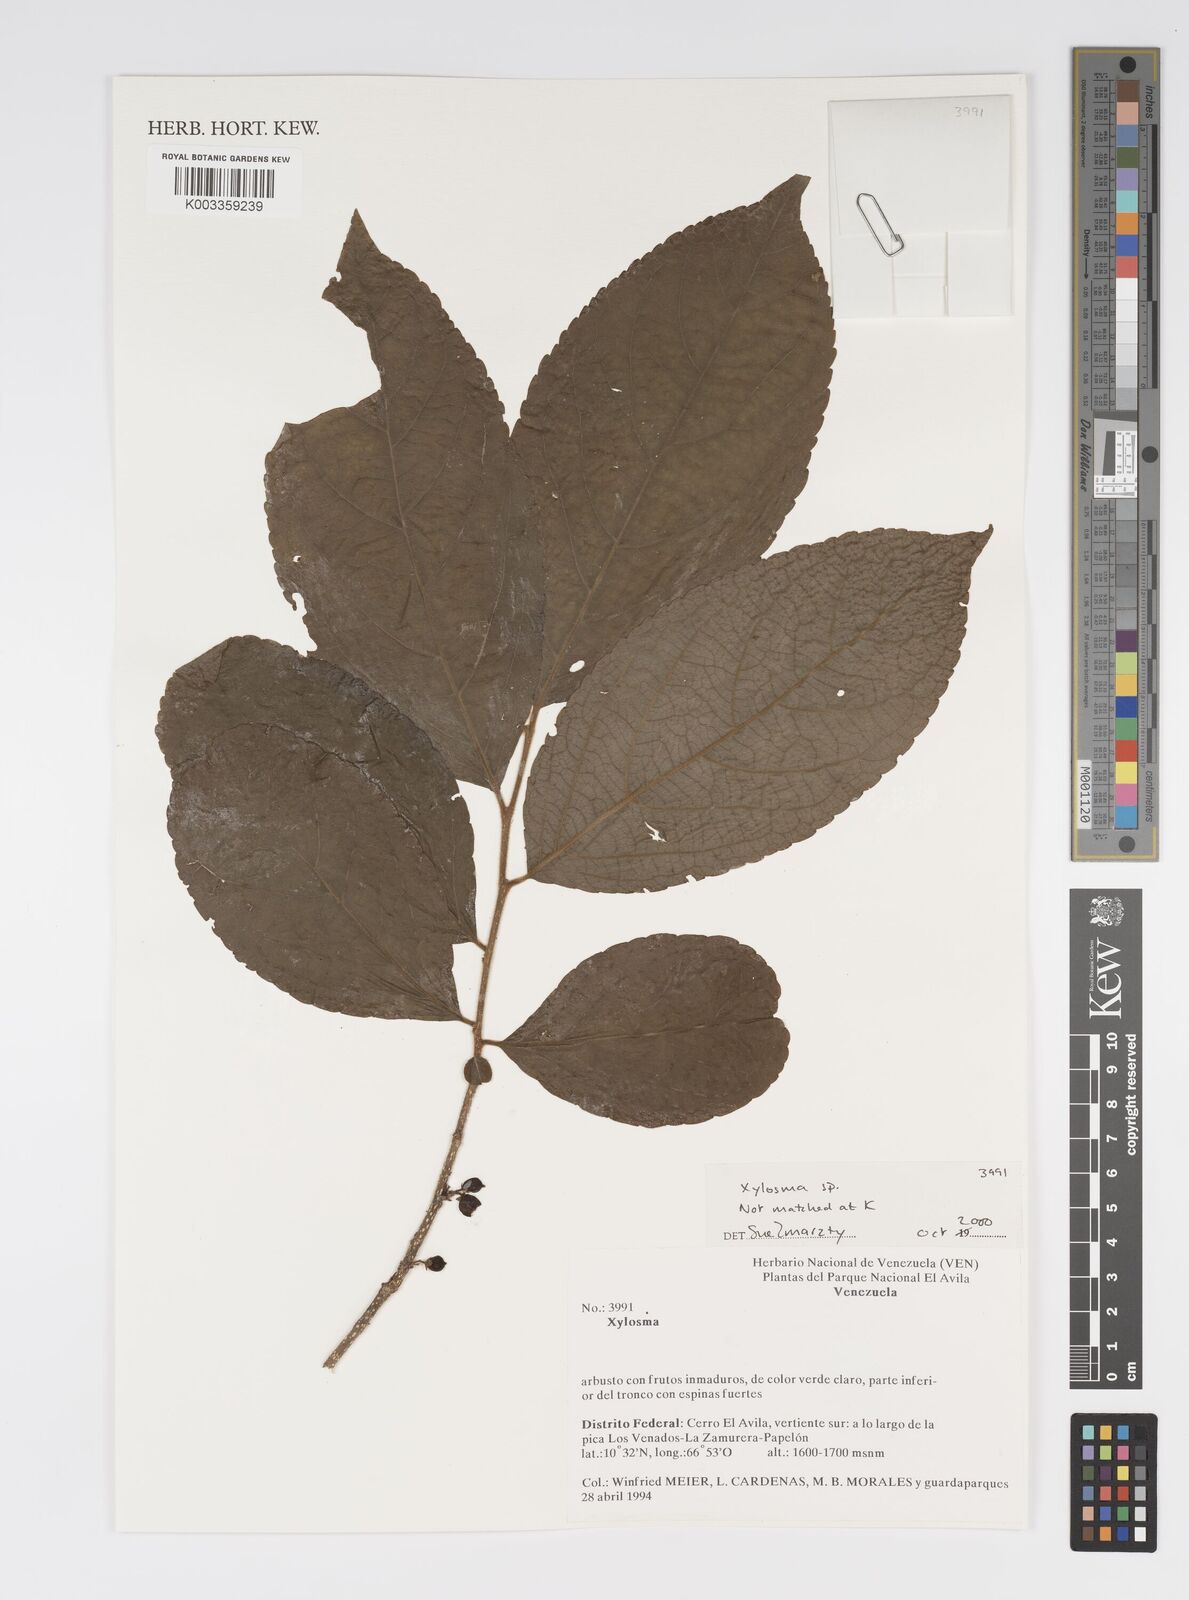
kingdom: Plantae
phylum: Tracheophyta
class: Magnoliopsida
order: Malpighiales
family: Salicaceae
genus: Xylosma
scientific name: Xylosma
